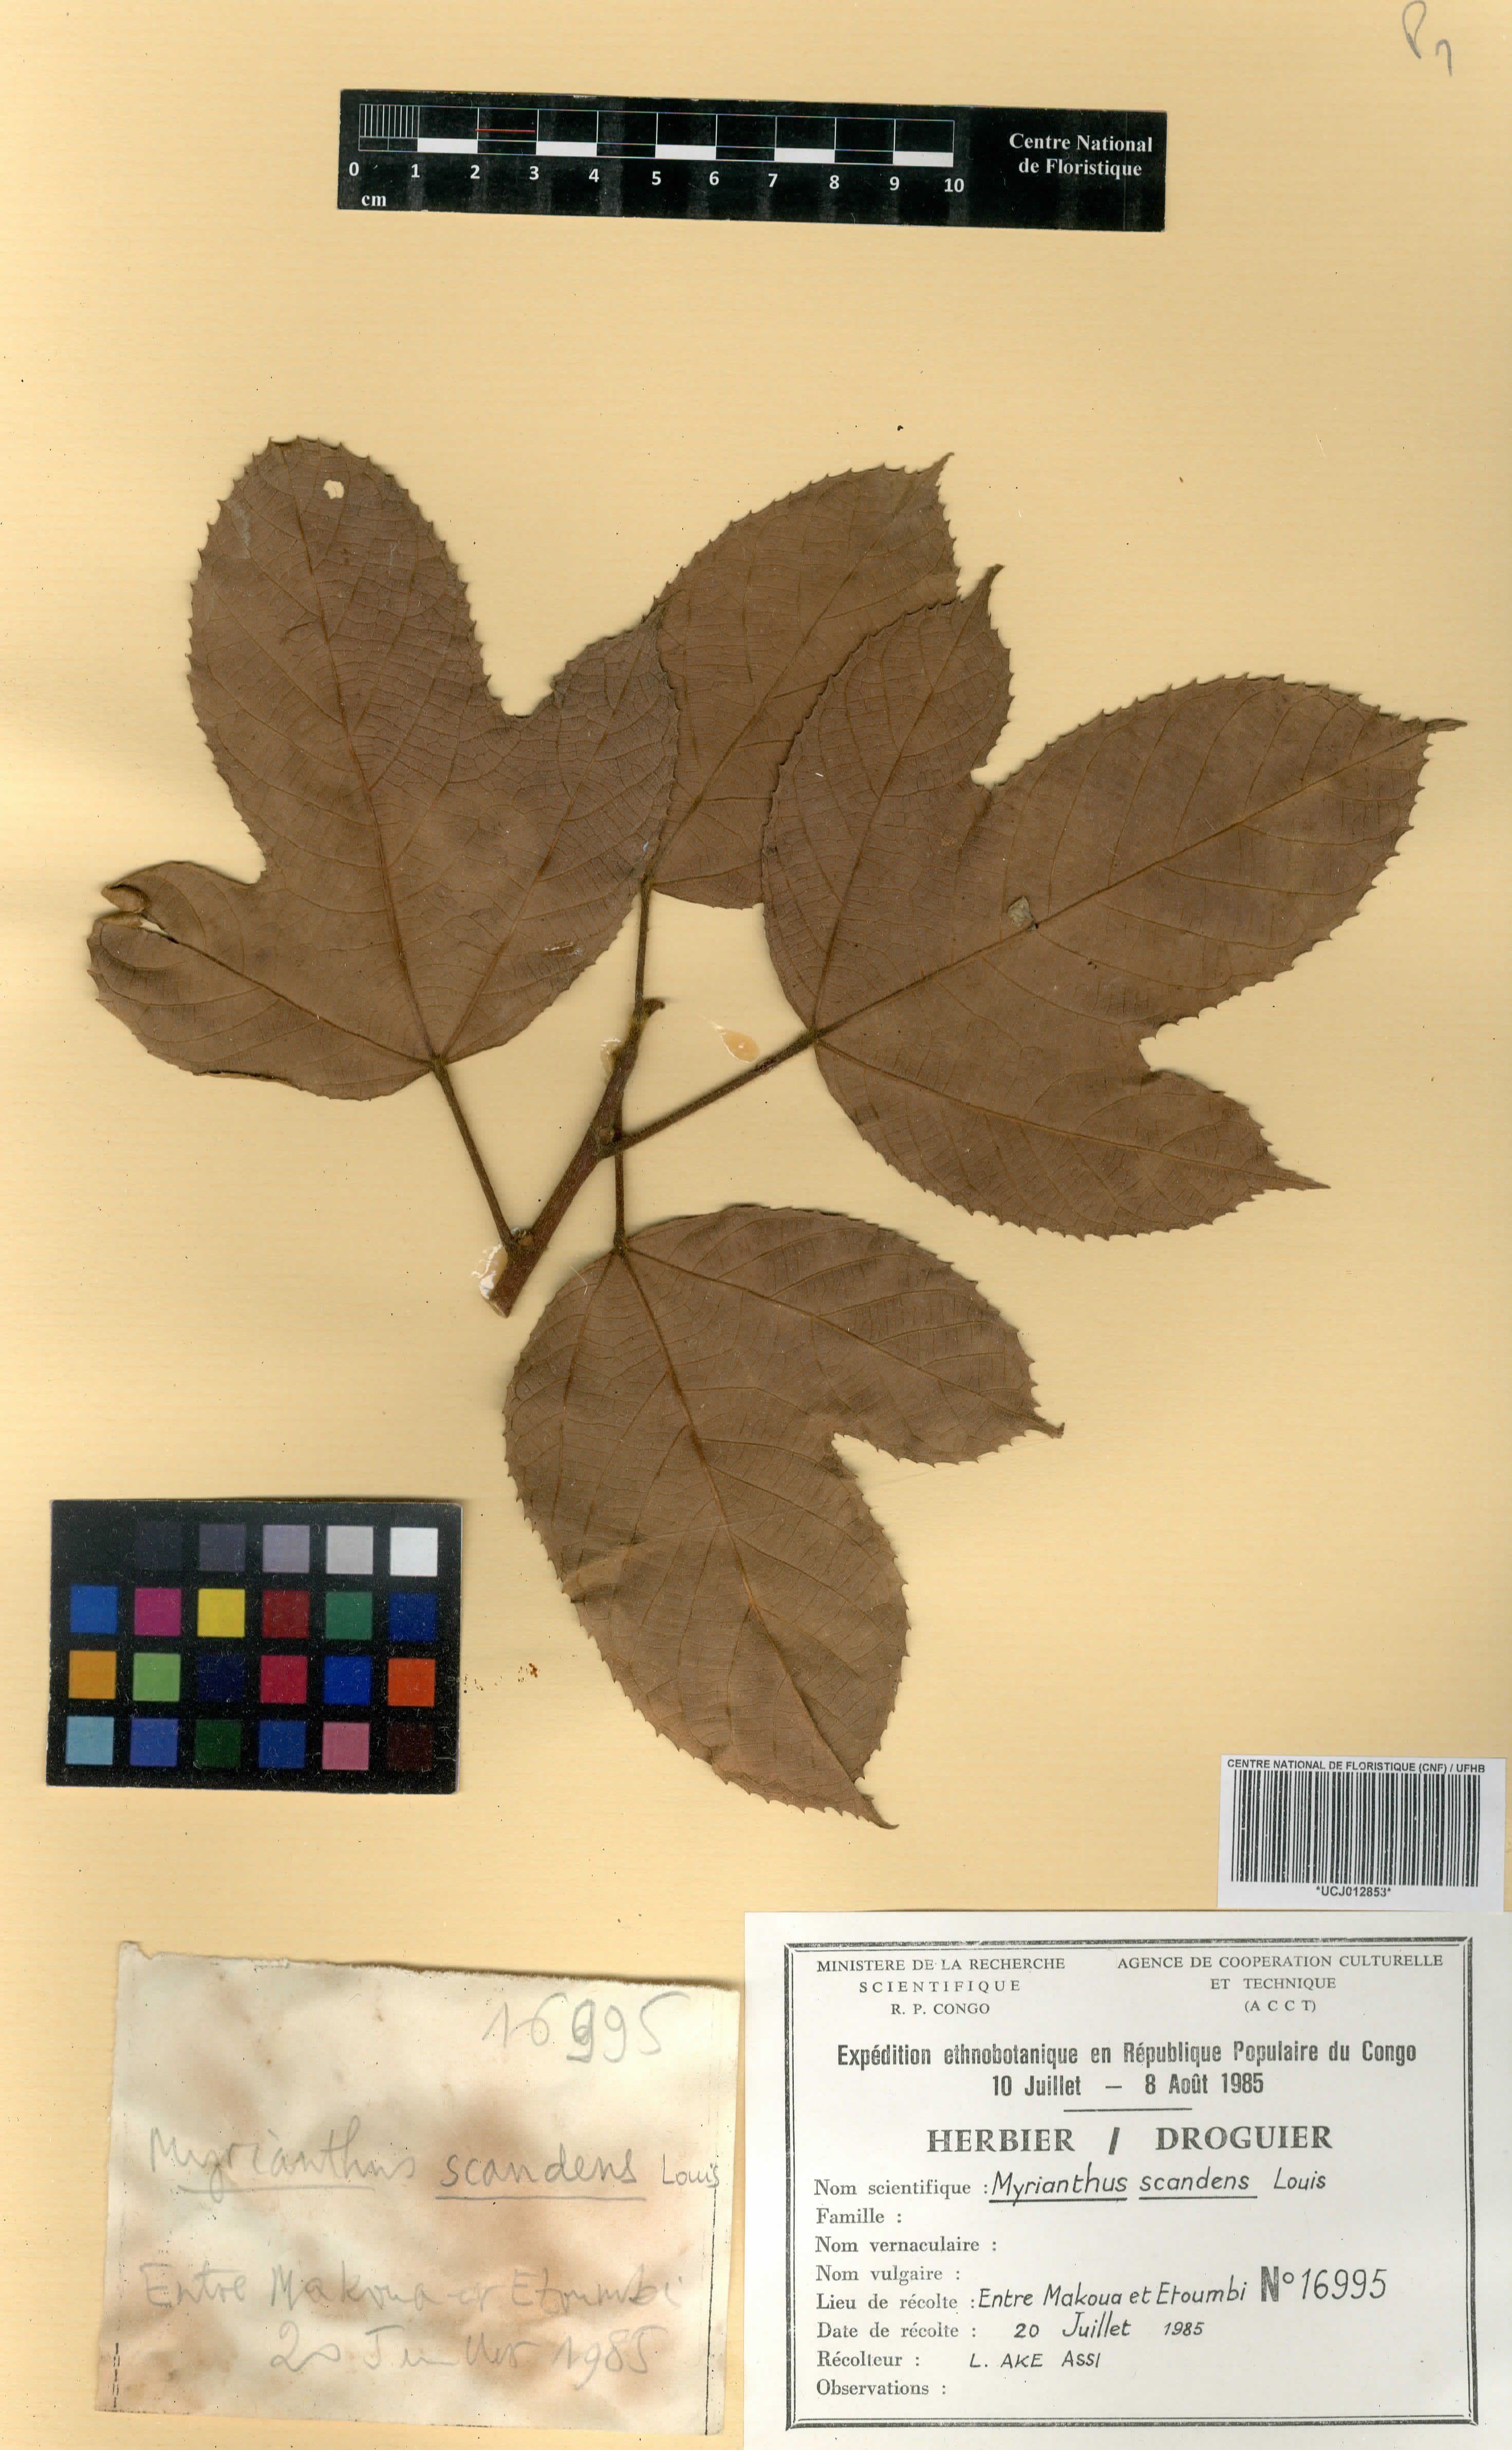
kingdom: Plantae
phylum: Tracheophyta
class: Magnoliopsida
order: Rosales
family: Urticaceae
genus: Myrianthus
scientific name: Myrianthus scandens
